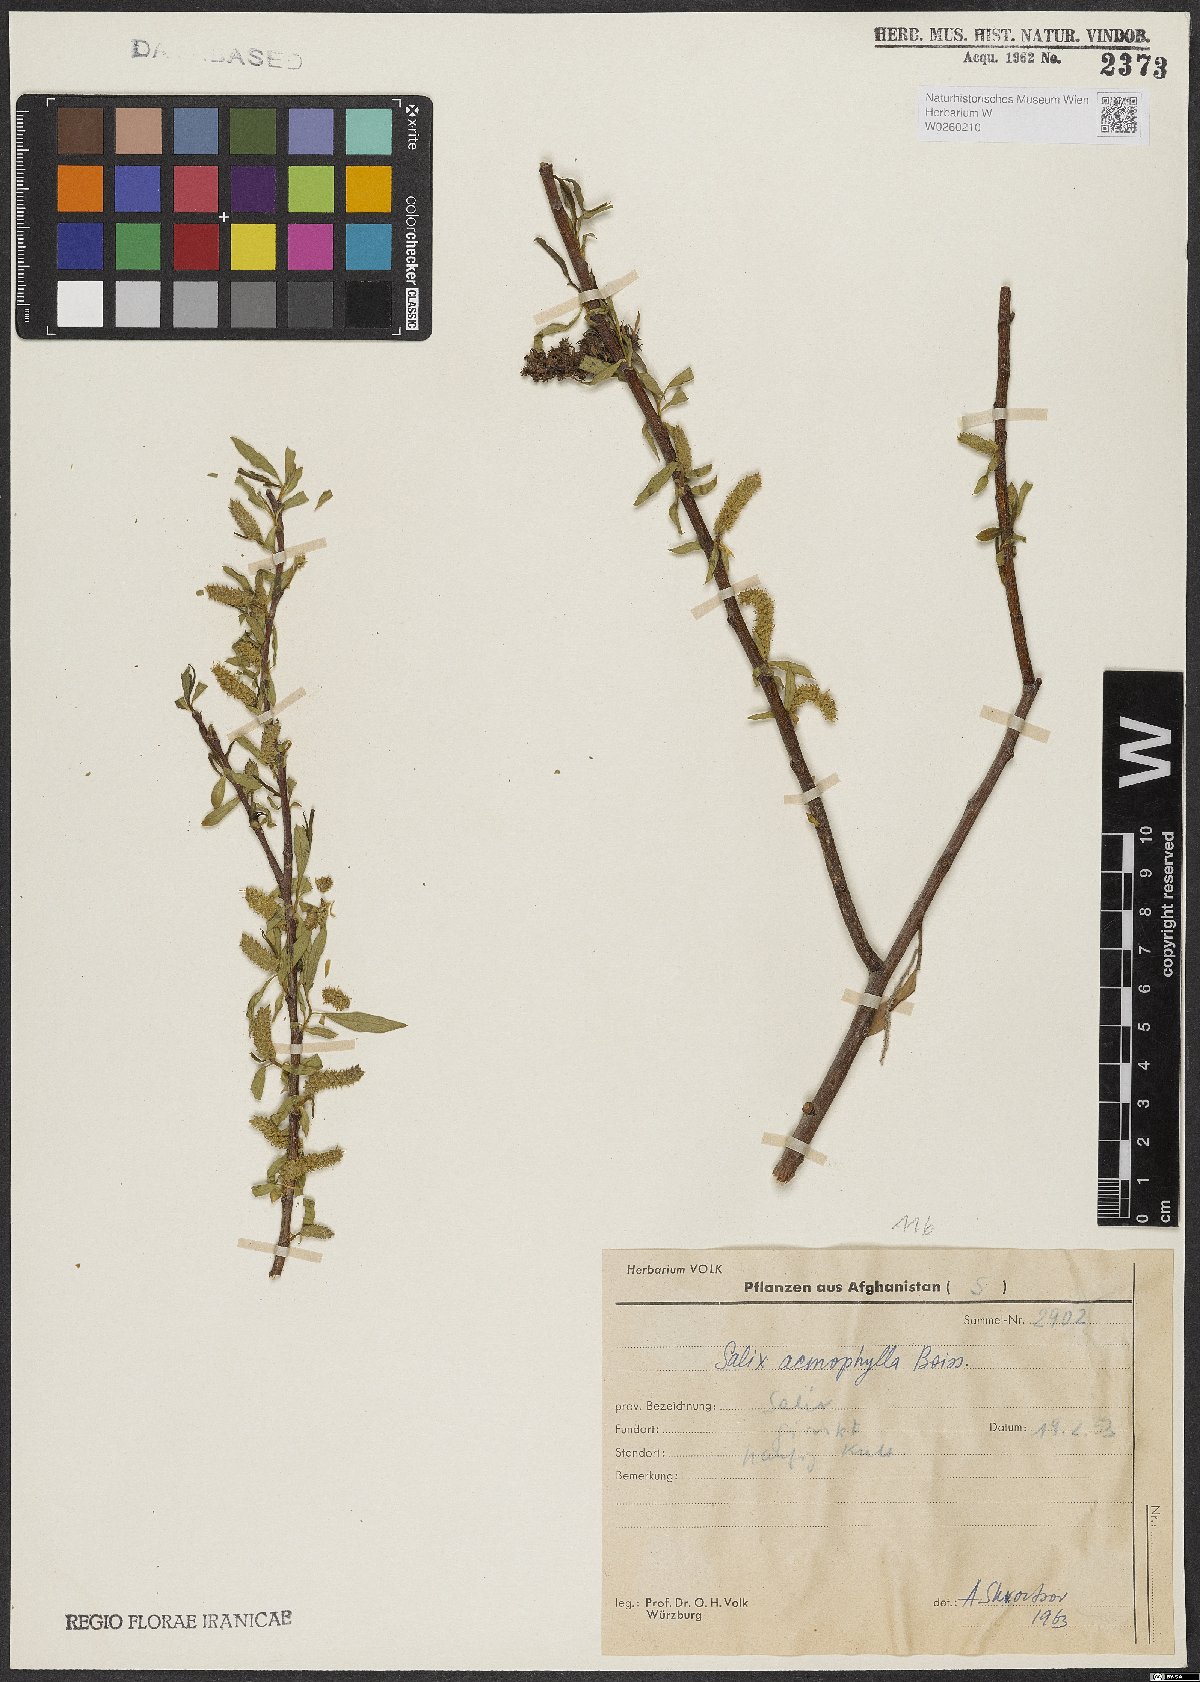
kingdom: Plantae
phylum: Tracheophyta
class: Magnoliopsida
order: Malpighiales
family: Salicaceae
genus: Salix
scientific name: Salix acmophylla
